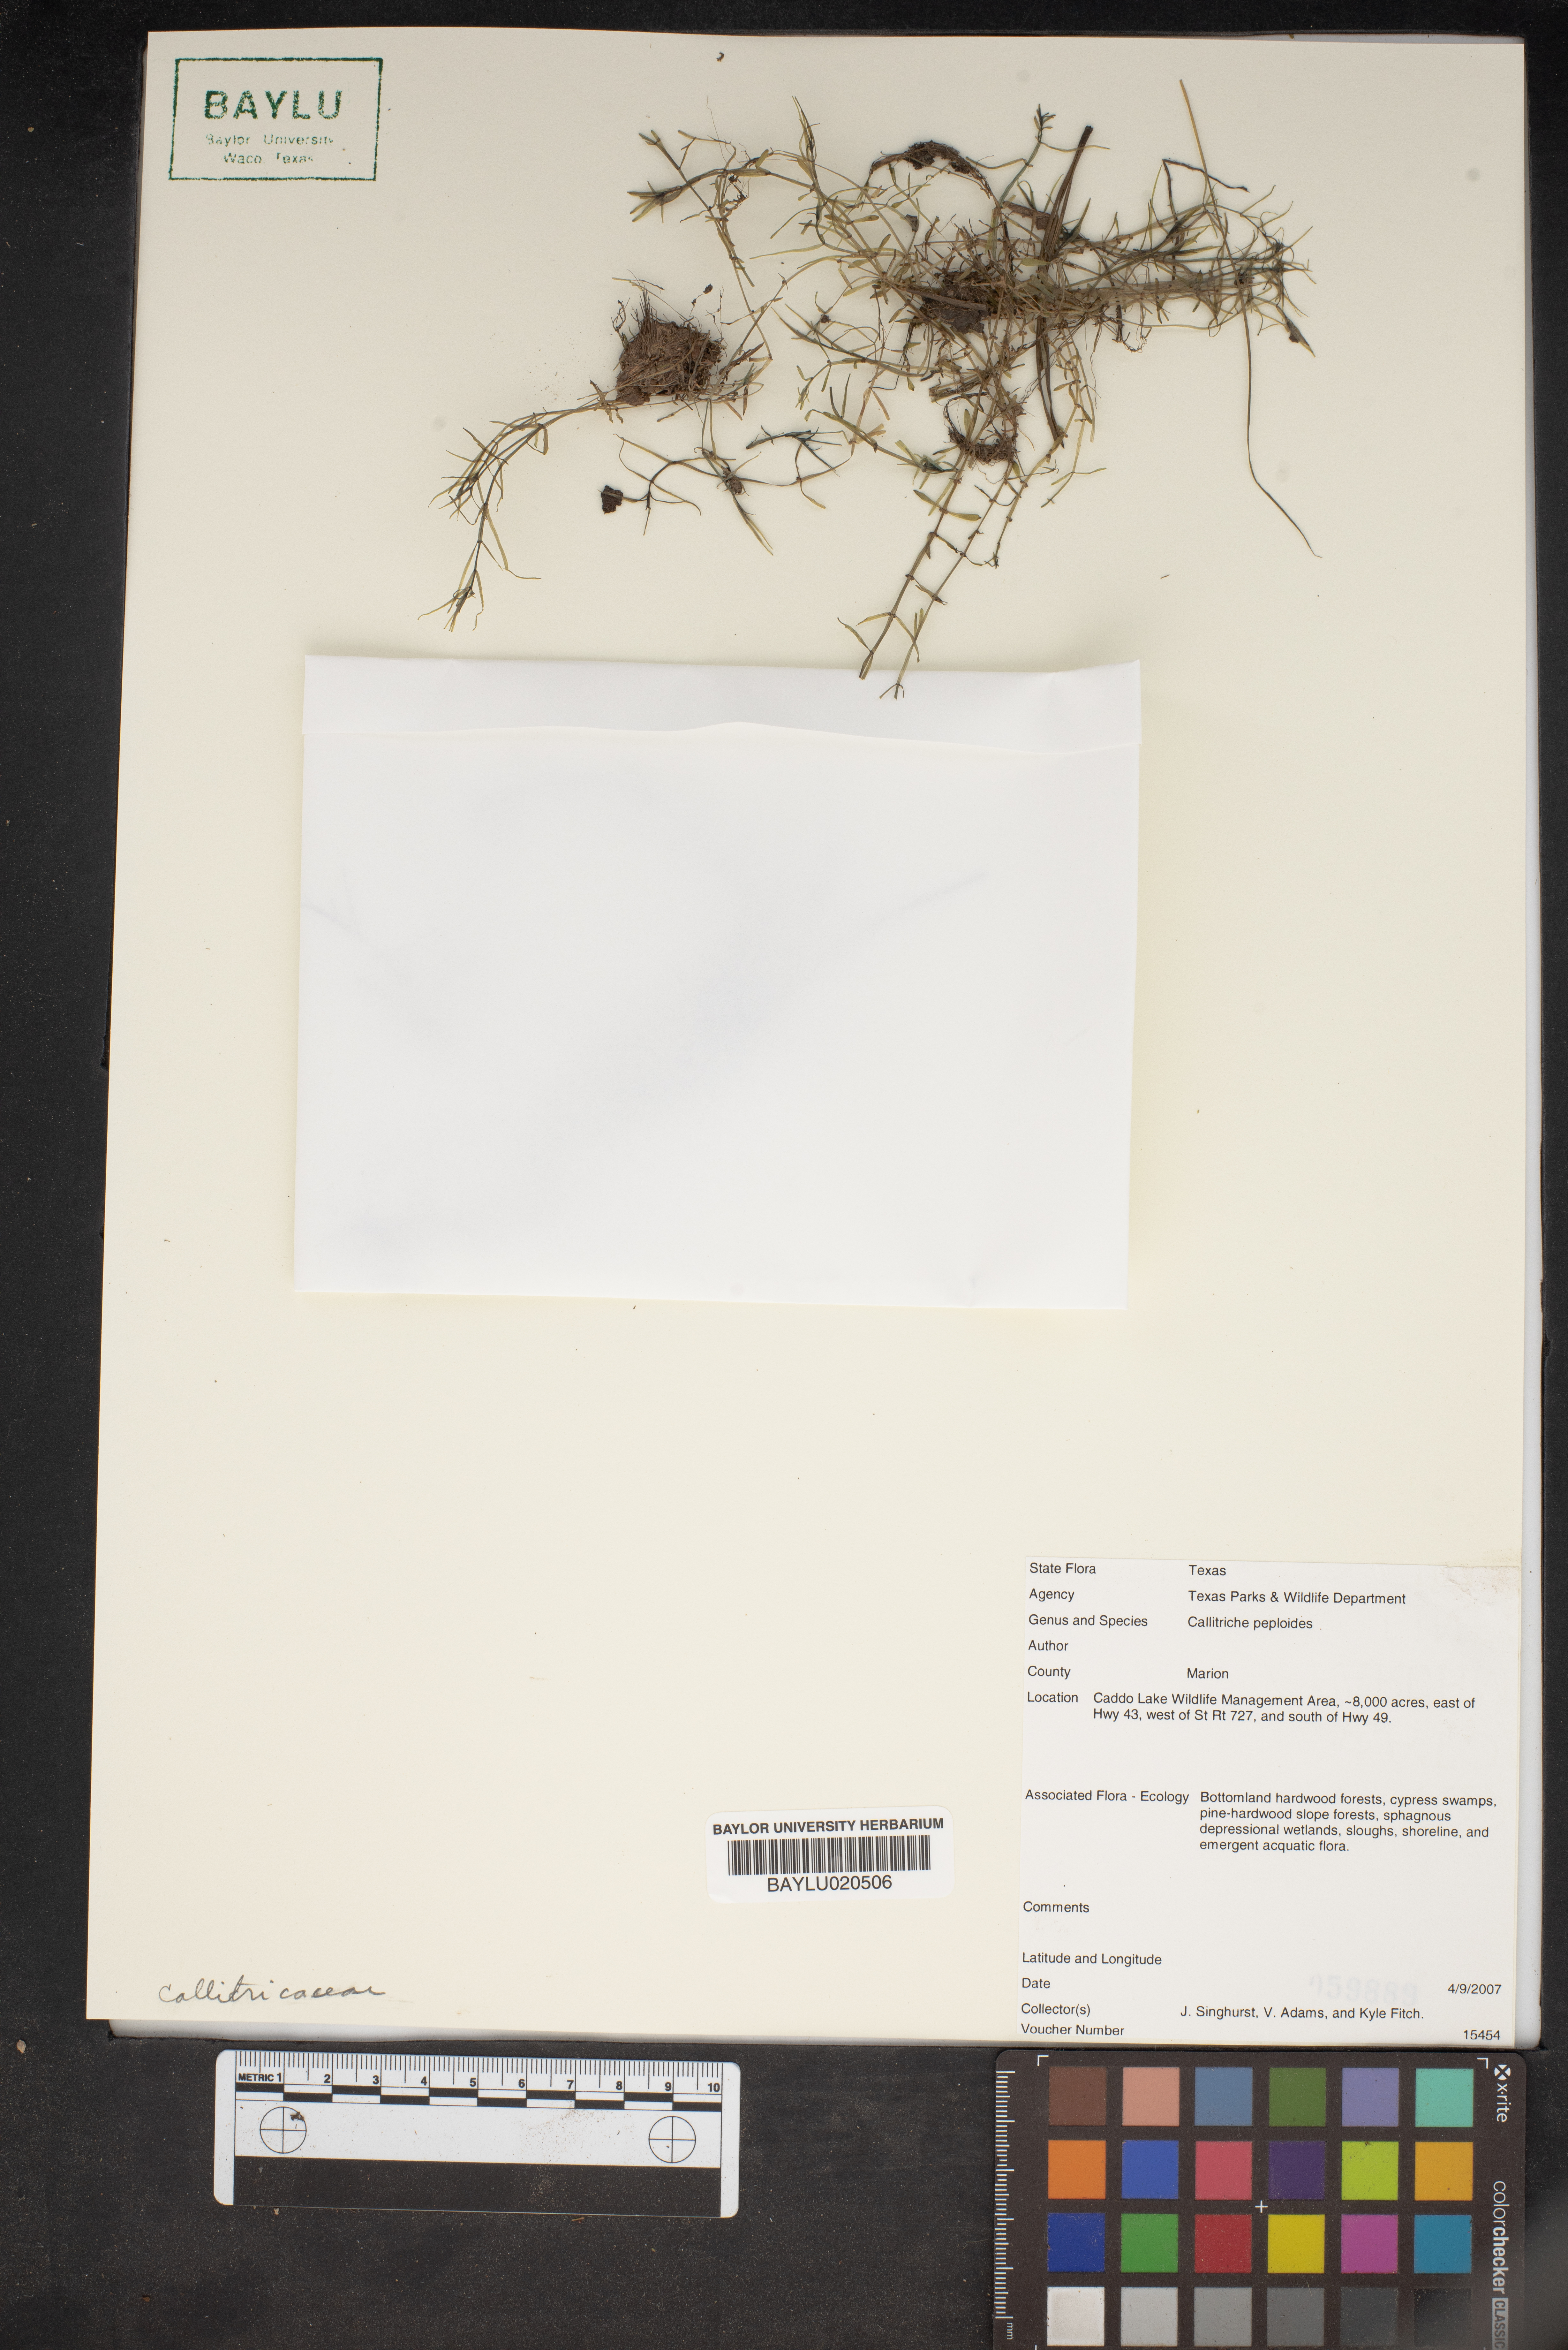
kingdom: Plantae
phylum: Tracheophyta
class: Magnoliopsida
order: Lamiales
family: Plantaginaceae
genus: Callitriche
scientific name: Callitriche peploides
